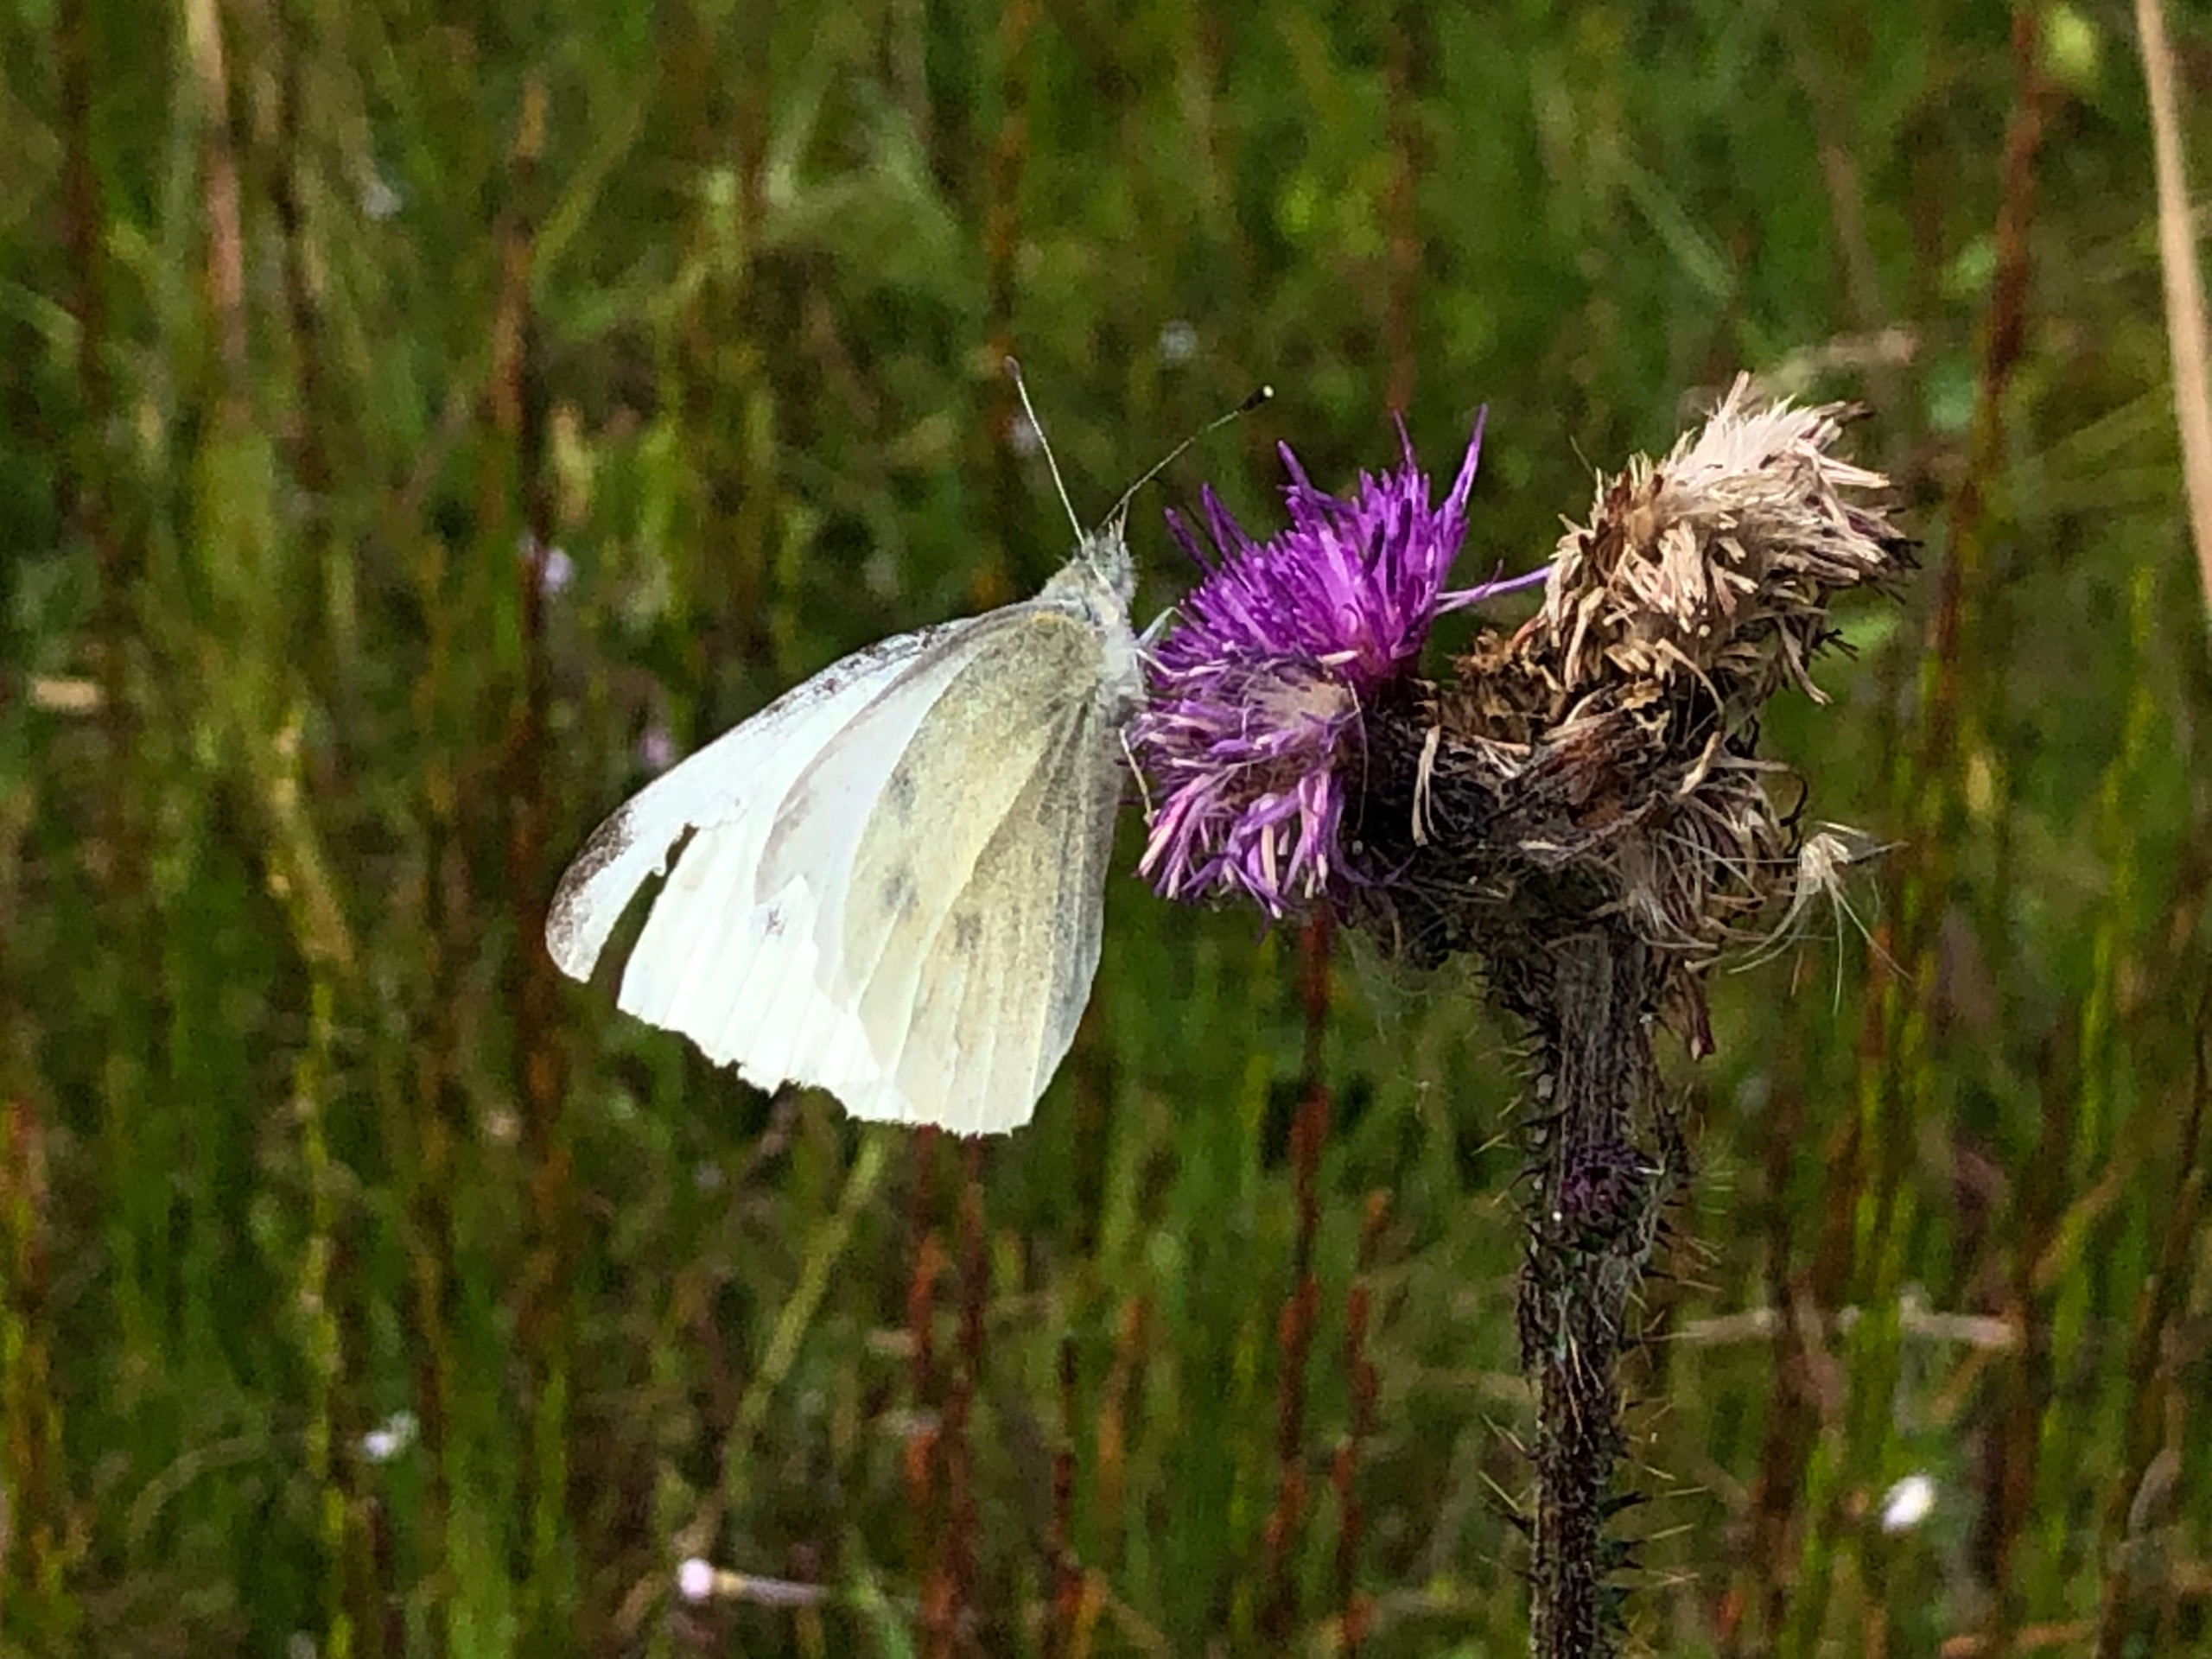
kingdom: Animalia
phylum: Arthropoda
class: Insecta
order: Lepidoptera
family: Pieridae
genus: Pieris
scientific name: Pieris rapae
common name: Lille kålsommerfugl
